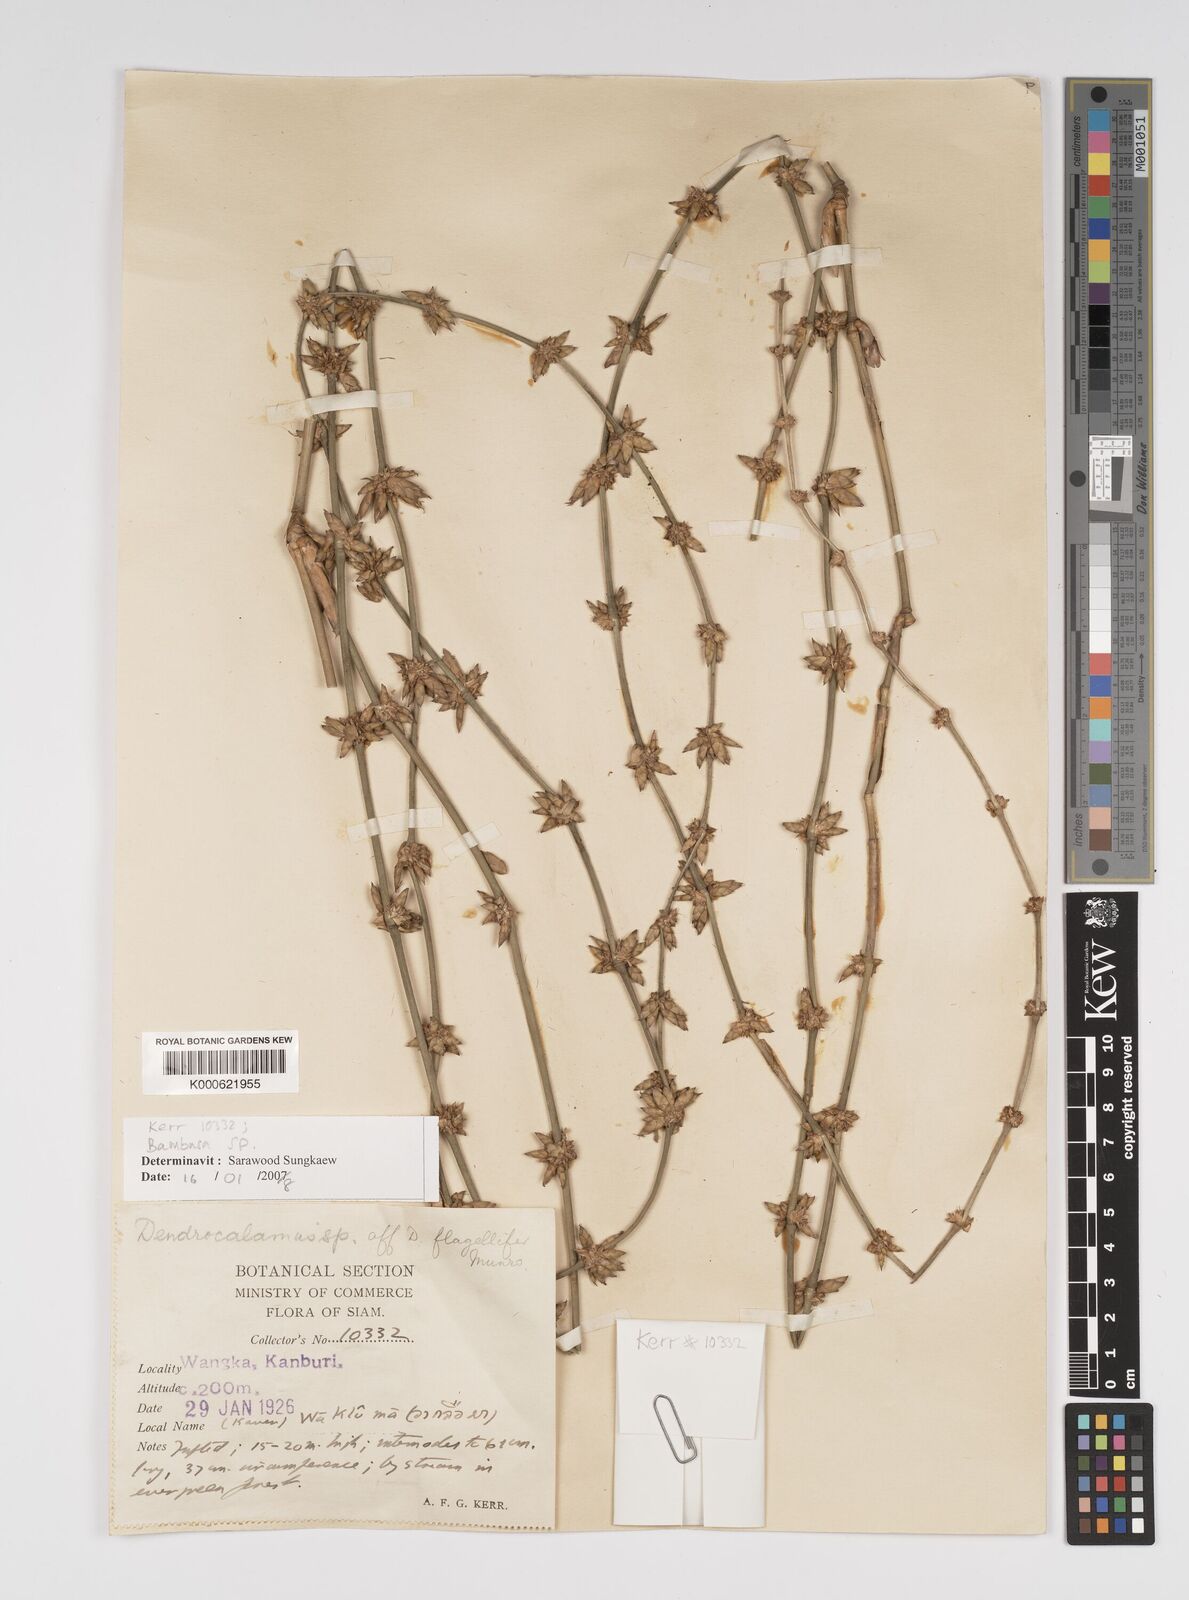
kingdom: Plantae
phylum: Tracheophyta
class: Liliopsida
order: Poales
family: Poaceae
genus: Bambusa
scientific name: Bambusa
